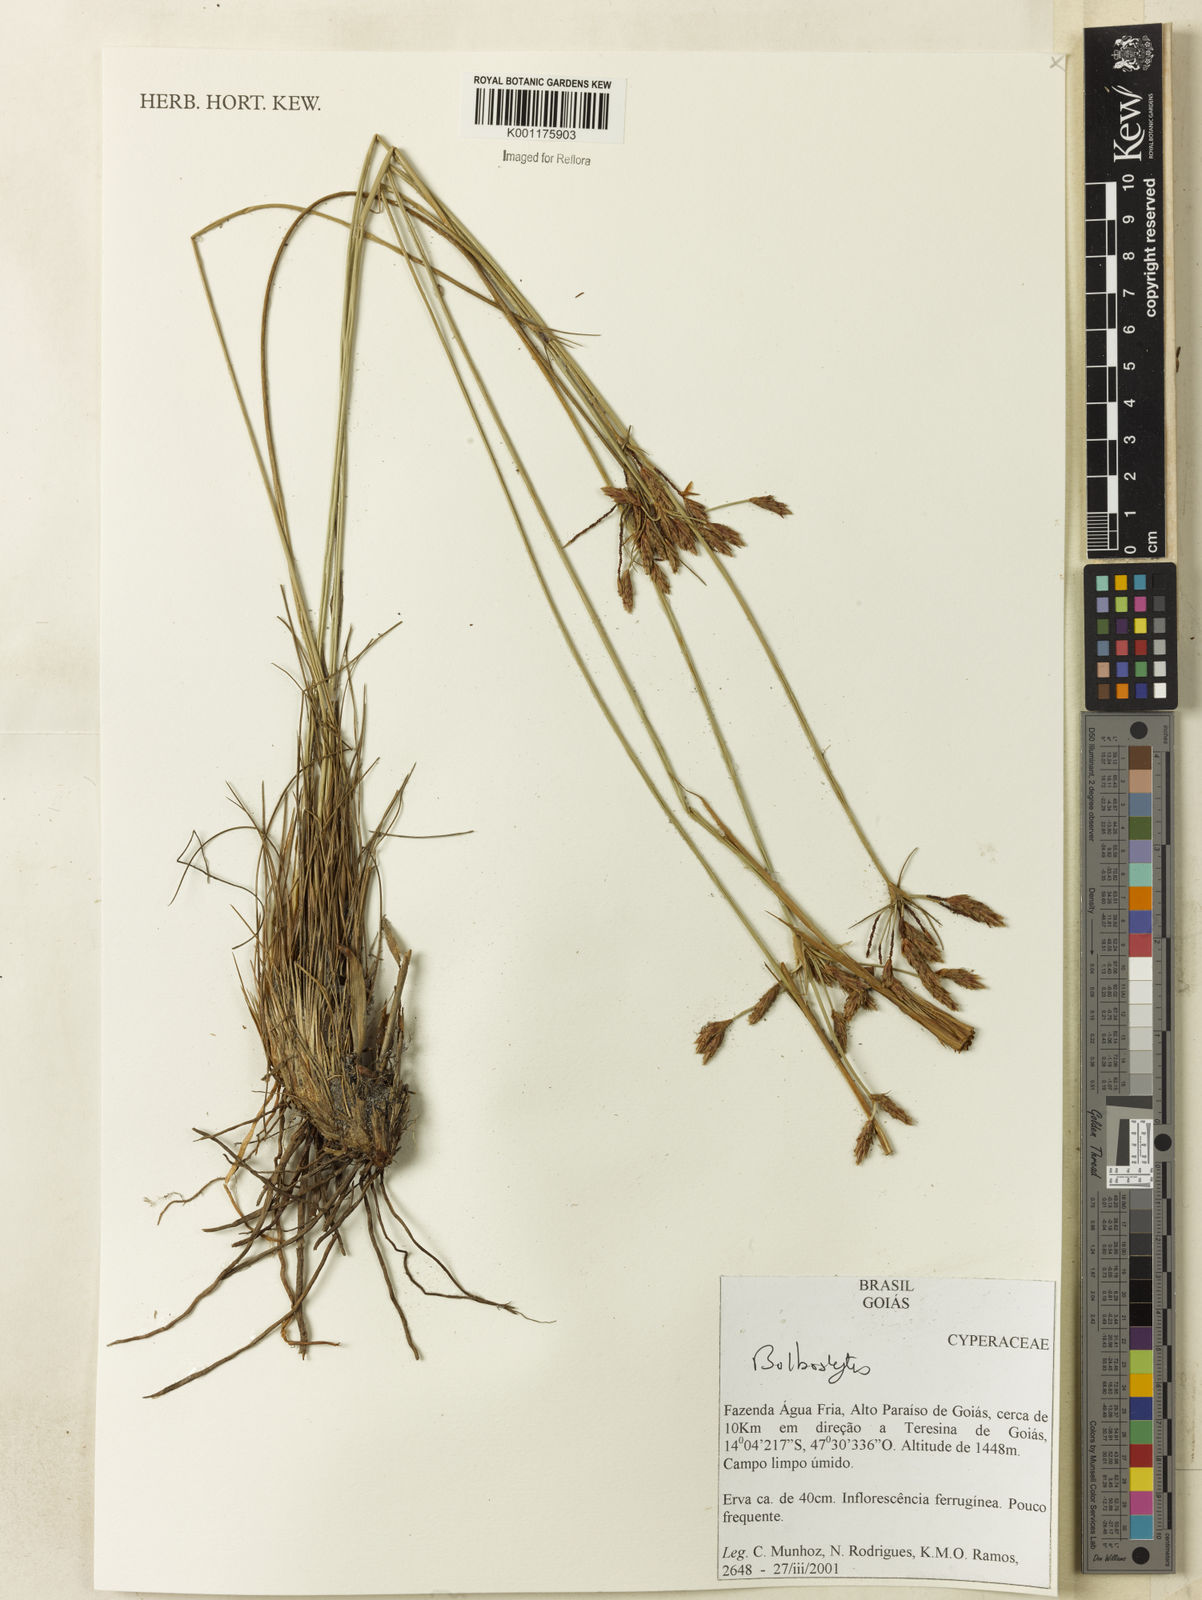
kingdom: Plantae
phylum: Tracheophyta
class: Liliopsida
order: Poales
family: Cyperaceae
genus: Bulbostylis
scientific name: Bulbostylis
